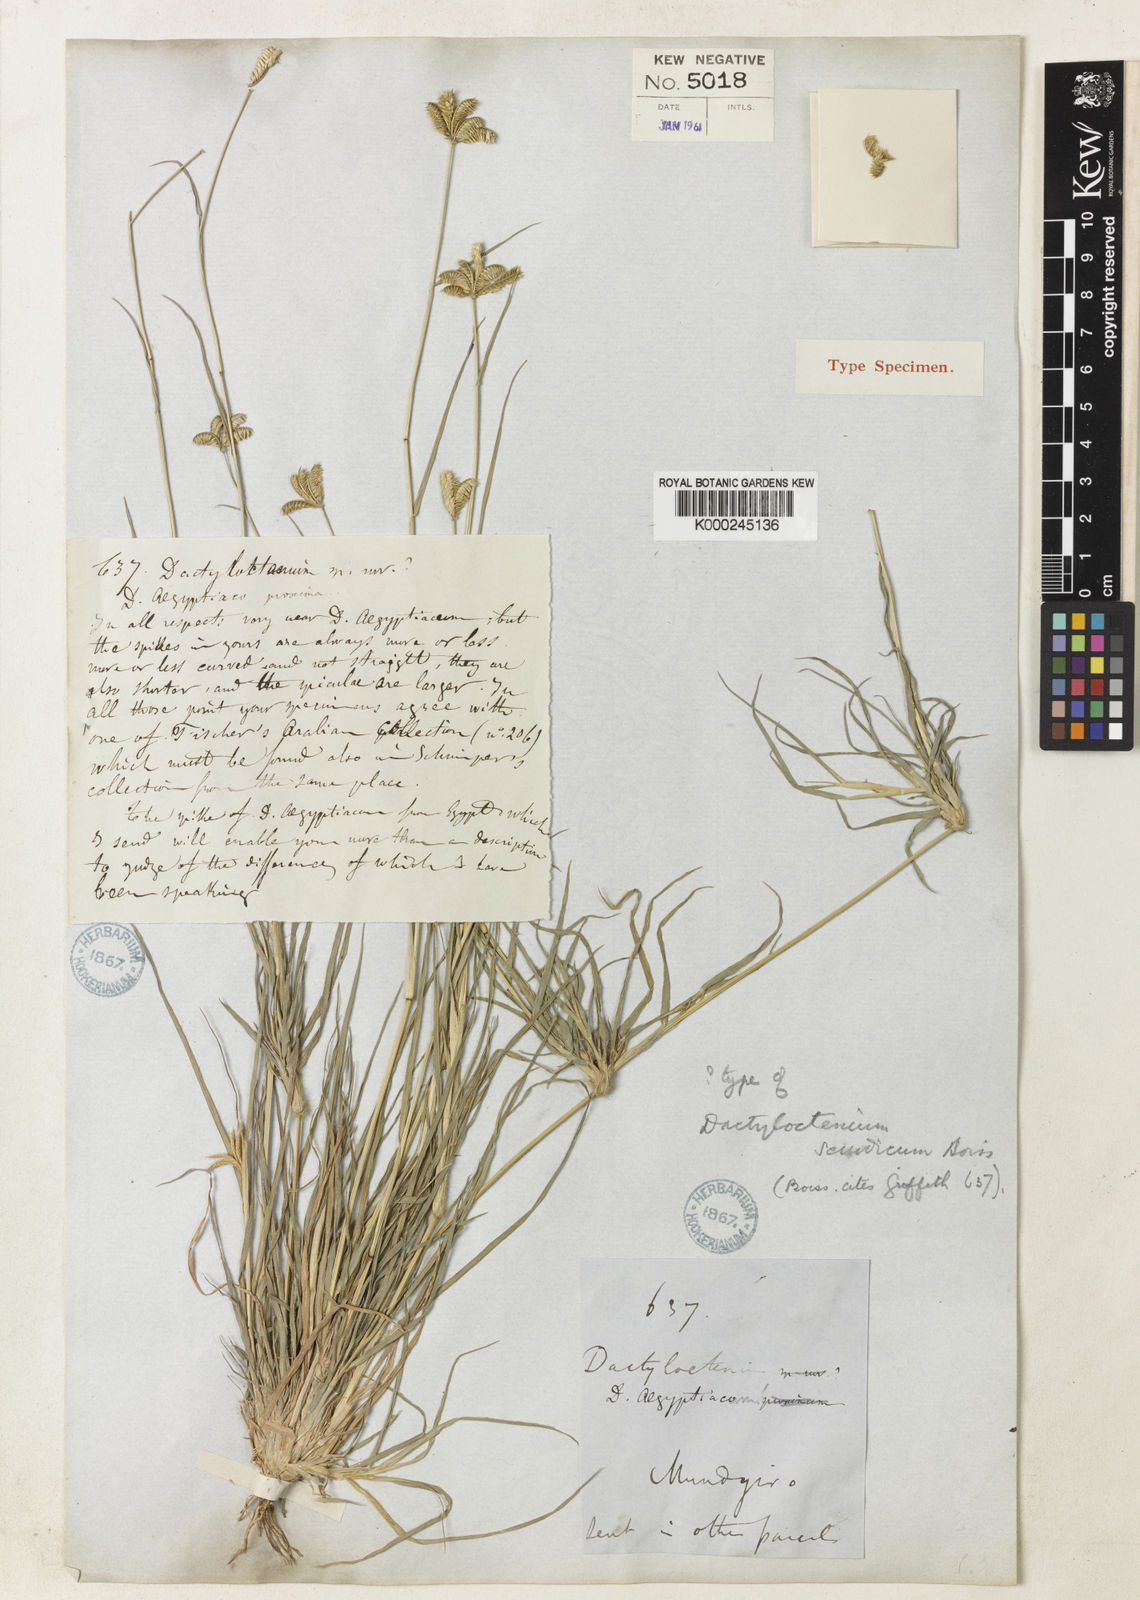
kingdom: Plantae
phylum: Tracheophyta
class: Liliopsida
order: Poales
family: Poaceae
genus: Dactyloctenium
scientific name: Dactyloctenium scindicum
